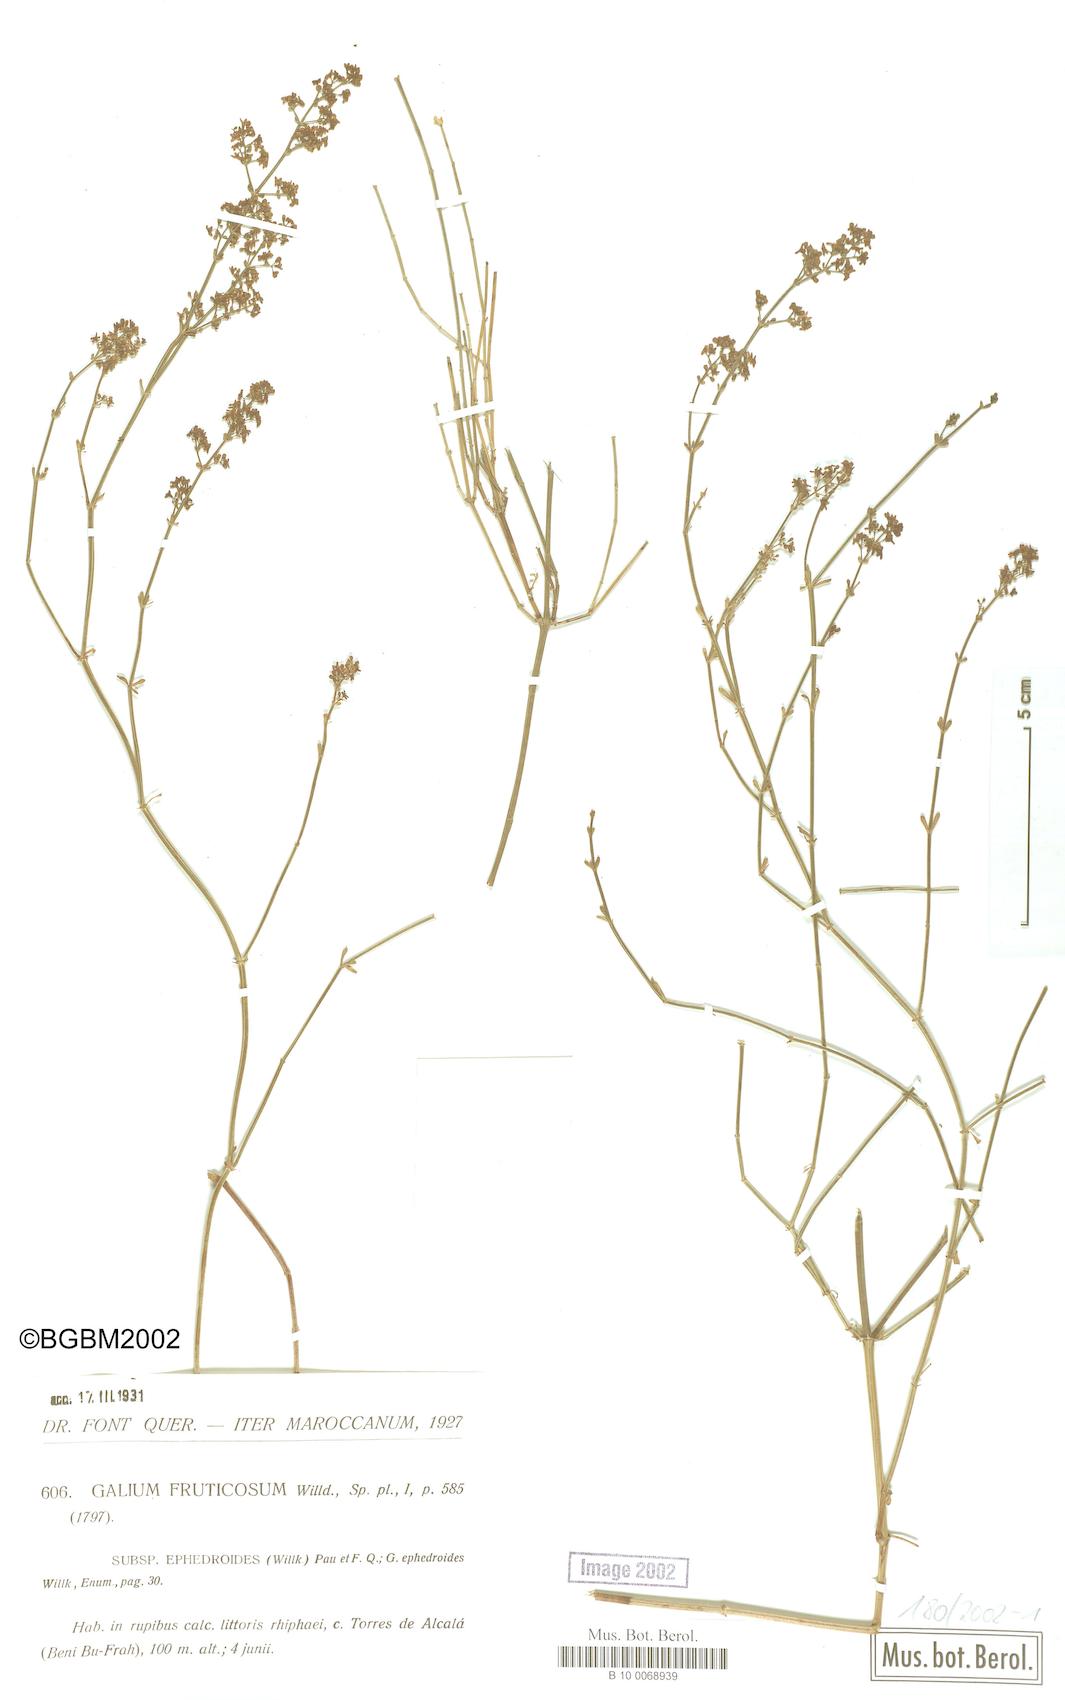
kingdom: Plantae
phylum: Tracheophyta
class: Magnoliopsida
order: Gentianales
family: Rubiaceae
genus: Galium
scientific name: Galium fruticosum
